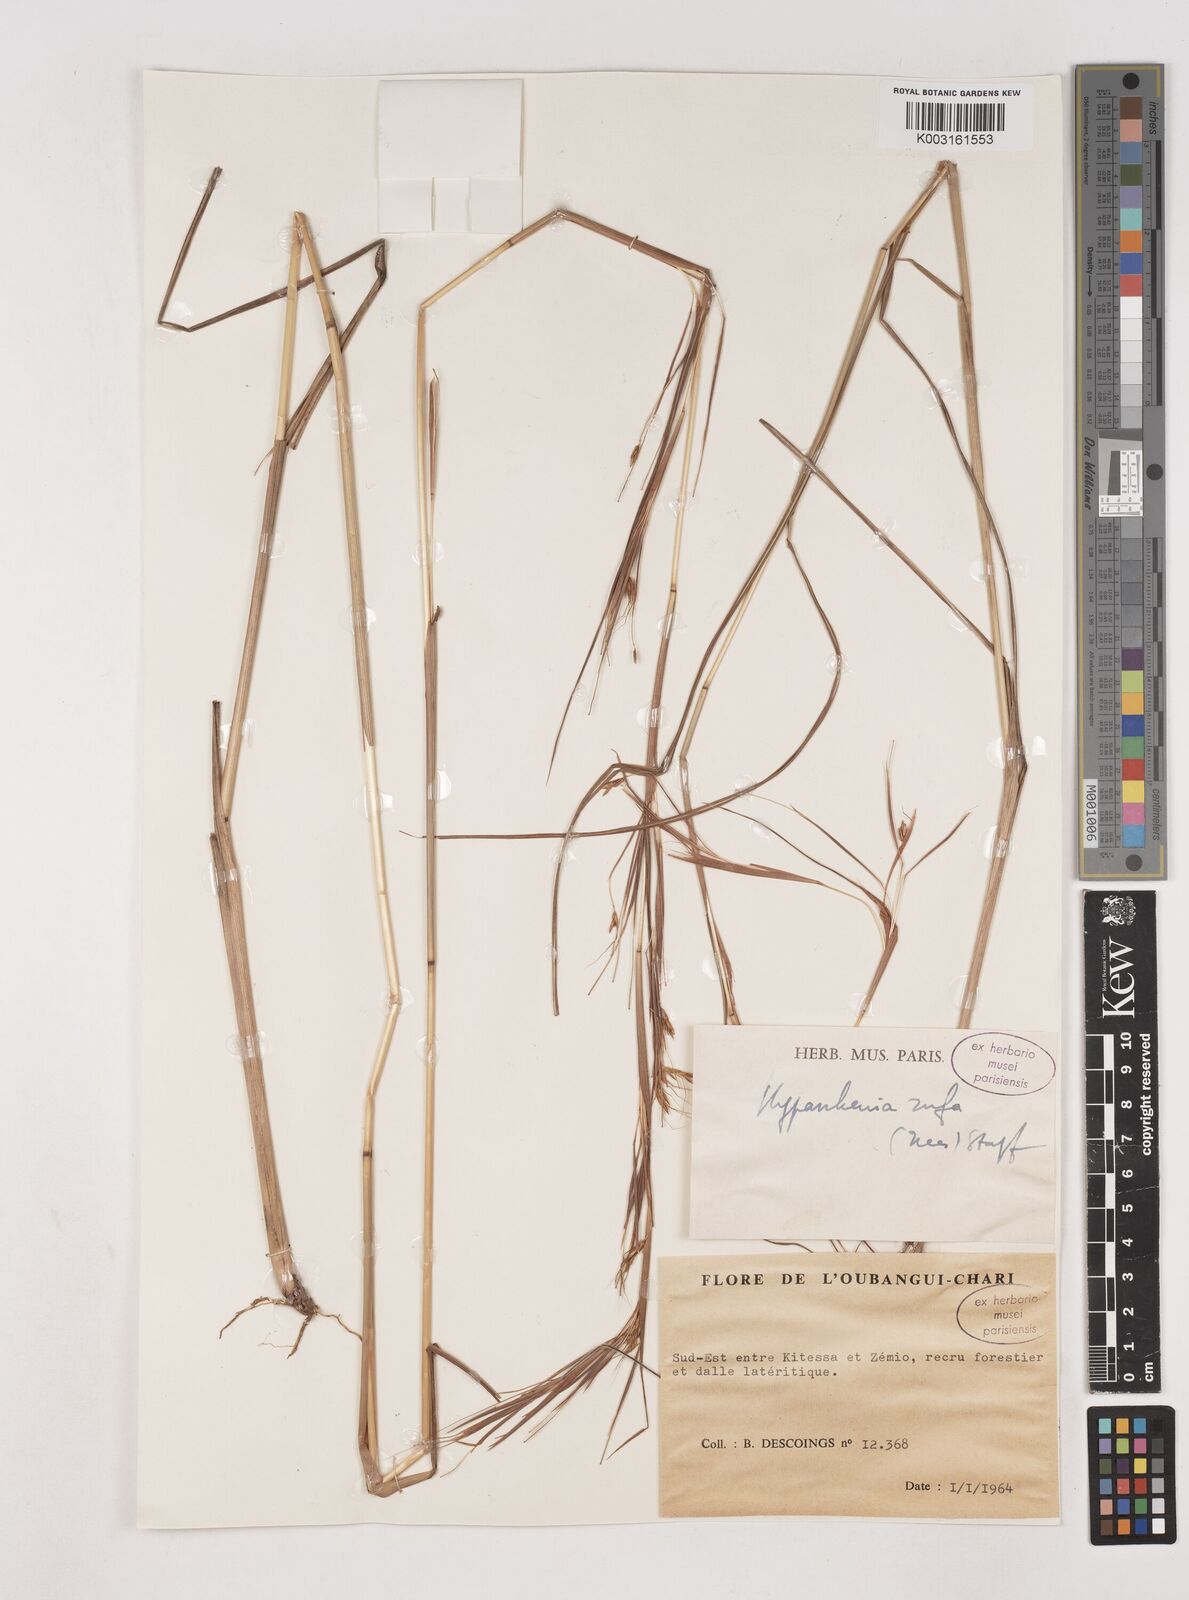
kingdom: Plantae
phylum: Tracheophyta
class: Liliopsida
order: Poales
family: Poaceae
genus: Hyparrhenia
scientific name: Hyparrhenia rufa
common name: Jaraguagrass
